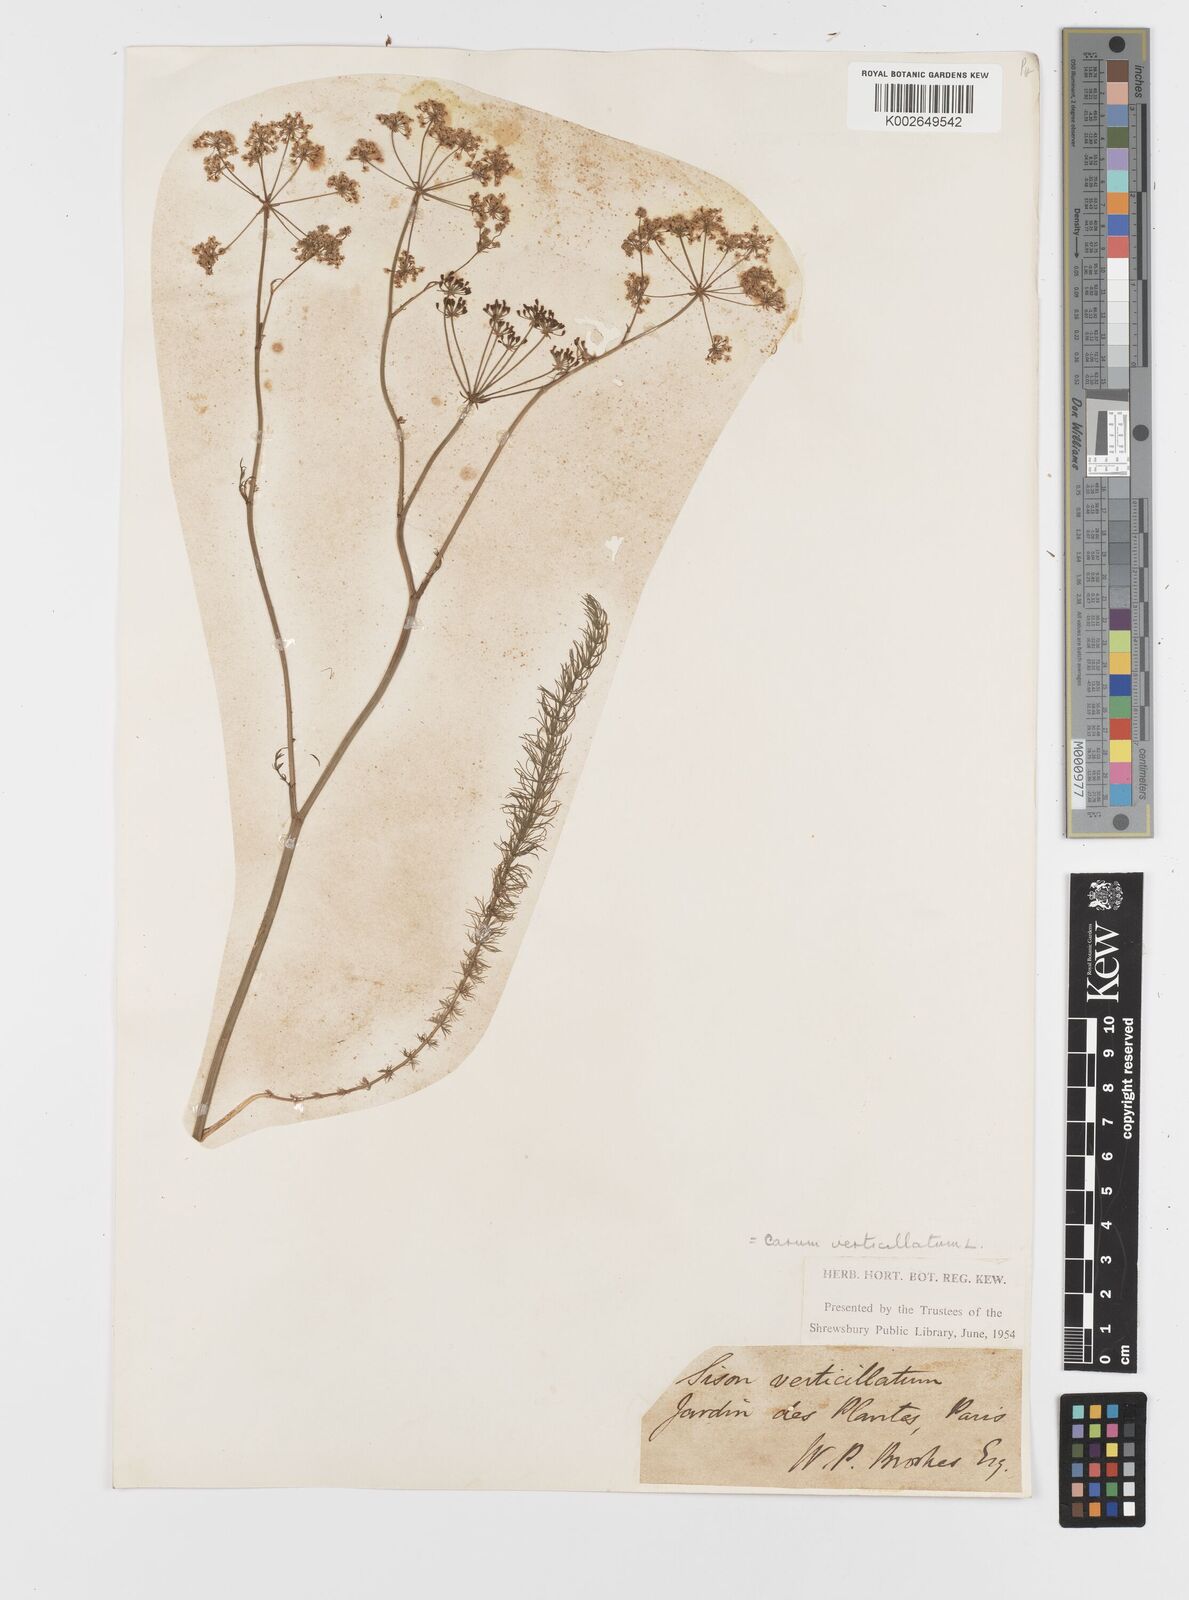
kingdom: Plantae
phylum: Tracheophyta
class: Magnoliopsida
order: Apiales
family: Apiaceae
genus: Trocdaris
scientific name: Trocdaris verticillatum
